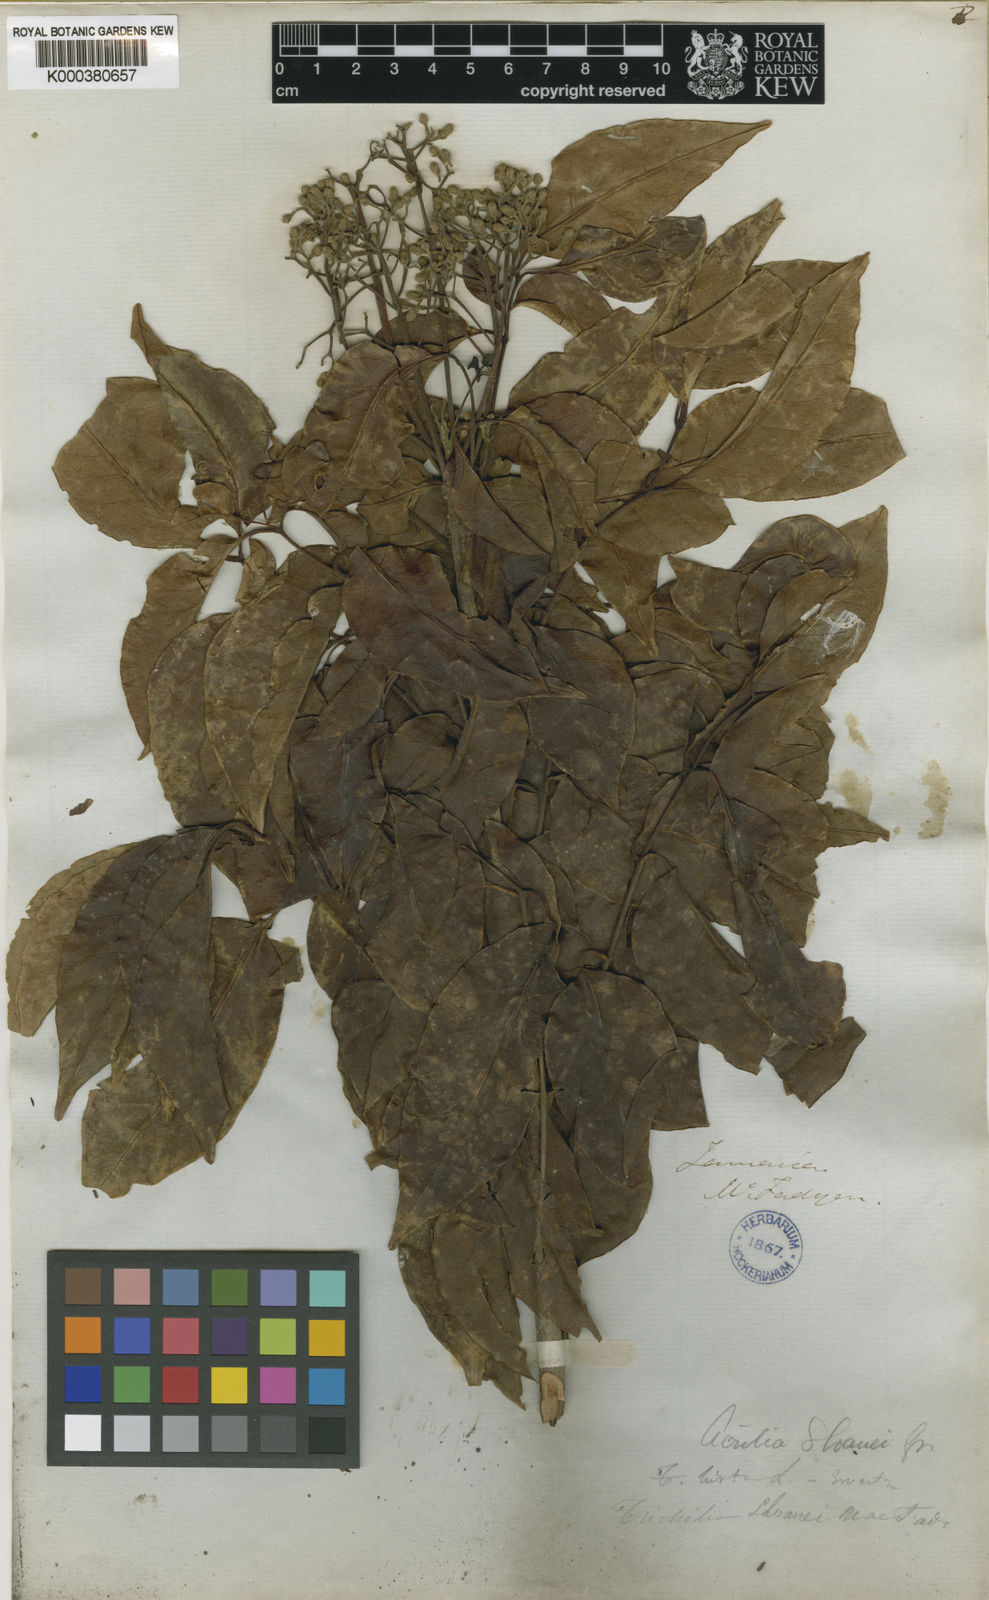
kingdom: Plantae
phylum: Tracheophyta
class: Magnoliopsida
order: Sapindales
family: Meliaceae
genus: Trichilia
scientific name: Trichilia glabra
